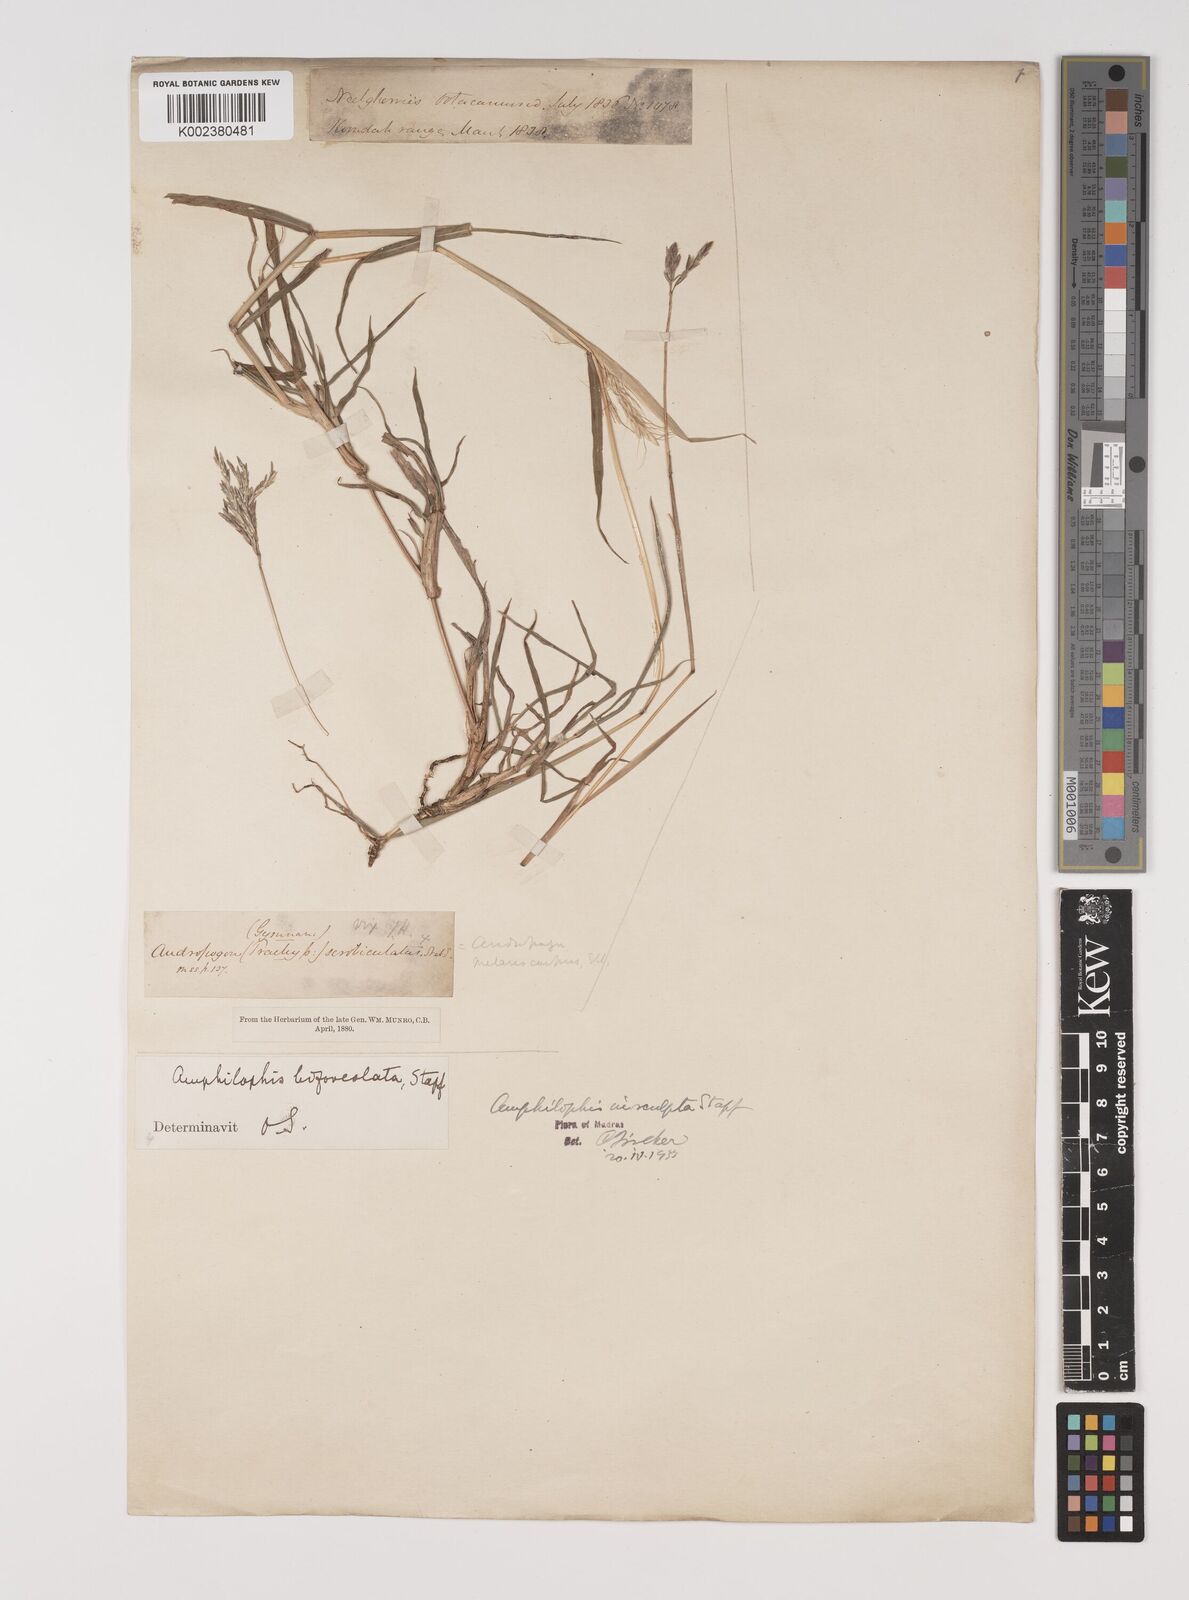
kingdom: Plantae
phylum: Tracheophyta
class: Liliopsida
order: Poales
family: Poaceae
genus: Bothriochloa
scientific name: Bothriochloa insculpta
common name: Creeping-bluegrass
